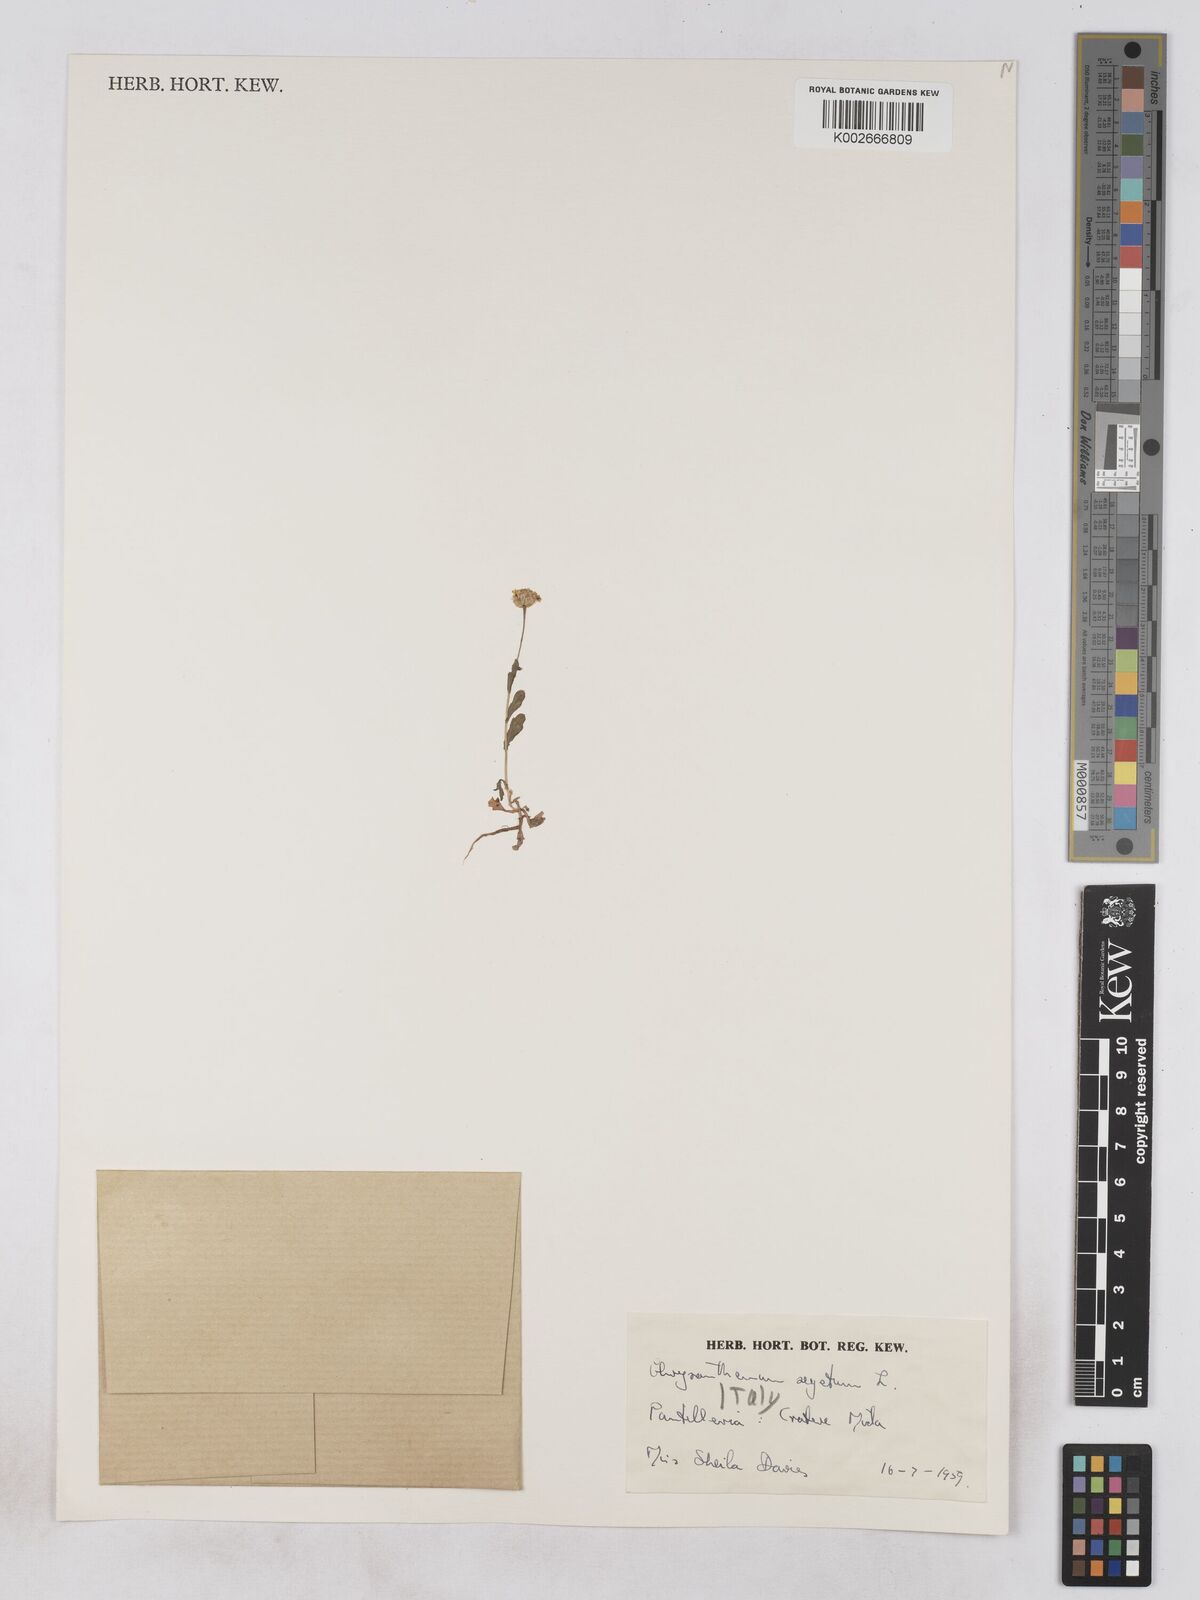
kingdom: Plantae
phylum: Tracheophyta
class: Magnoliopsida
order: Asterales
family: Asteraceae
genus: Glebionis
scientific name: Glebionis segetum
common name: Corndaisy
